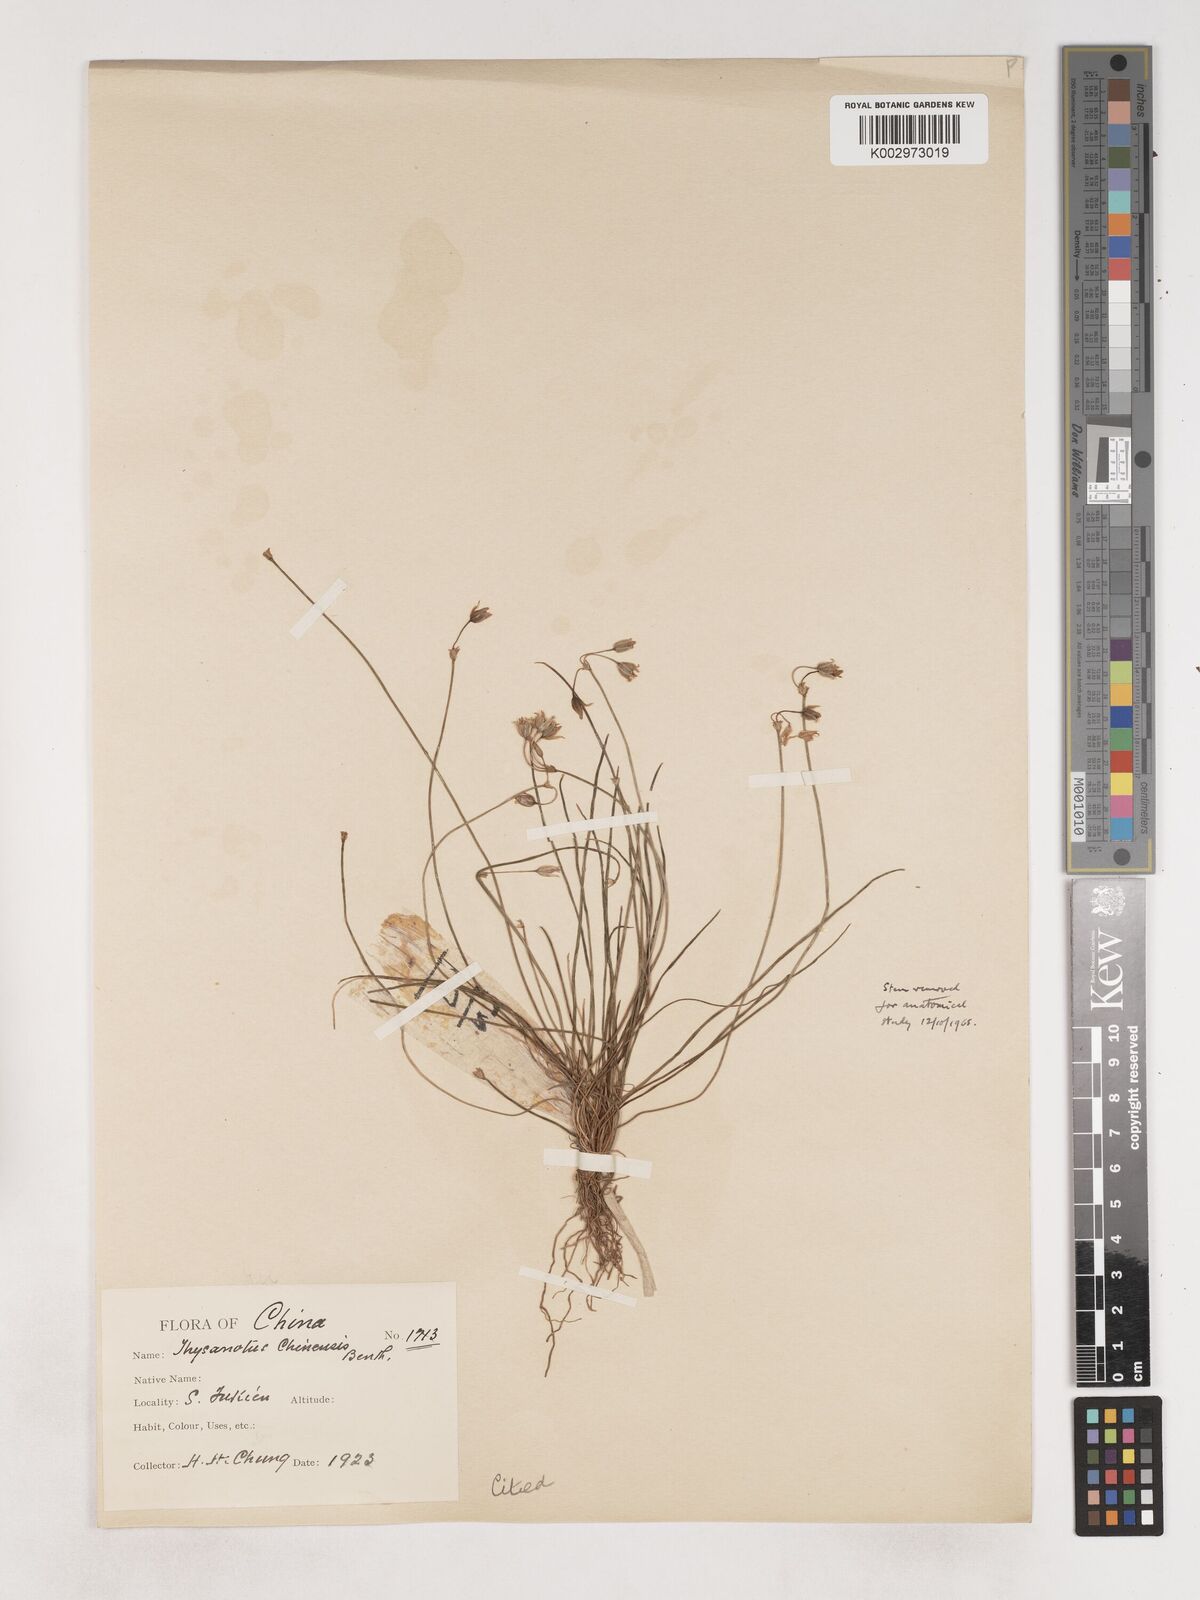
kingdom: Plantae
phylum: Tracheophyta
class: Liliopsida
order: Asparagales
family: Asparagaceae
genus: Thysanotus
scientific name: Thysanotus chinensis
